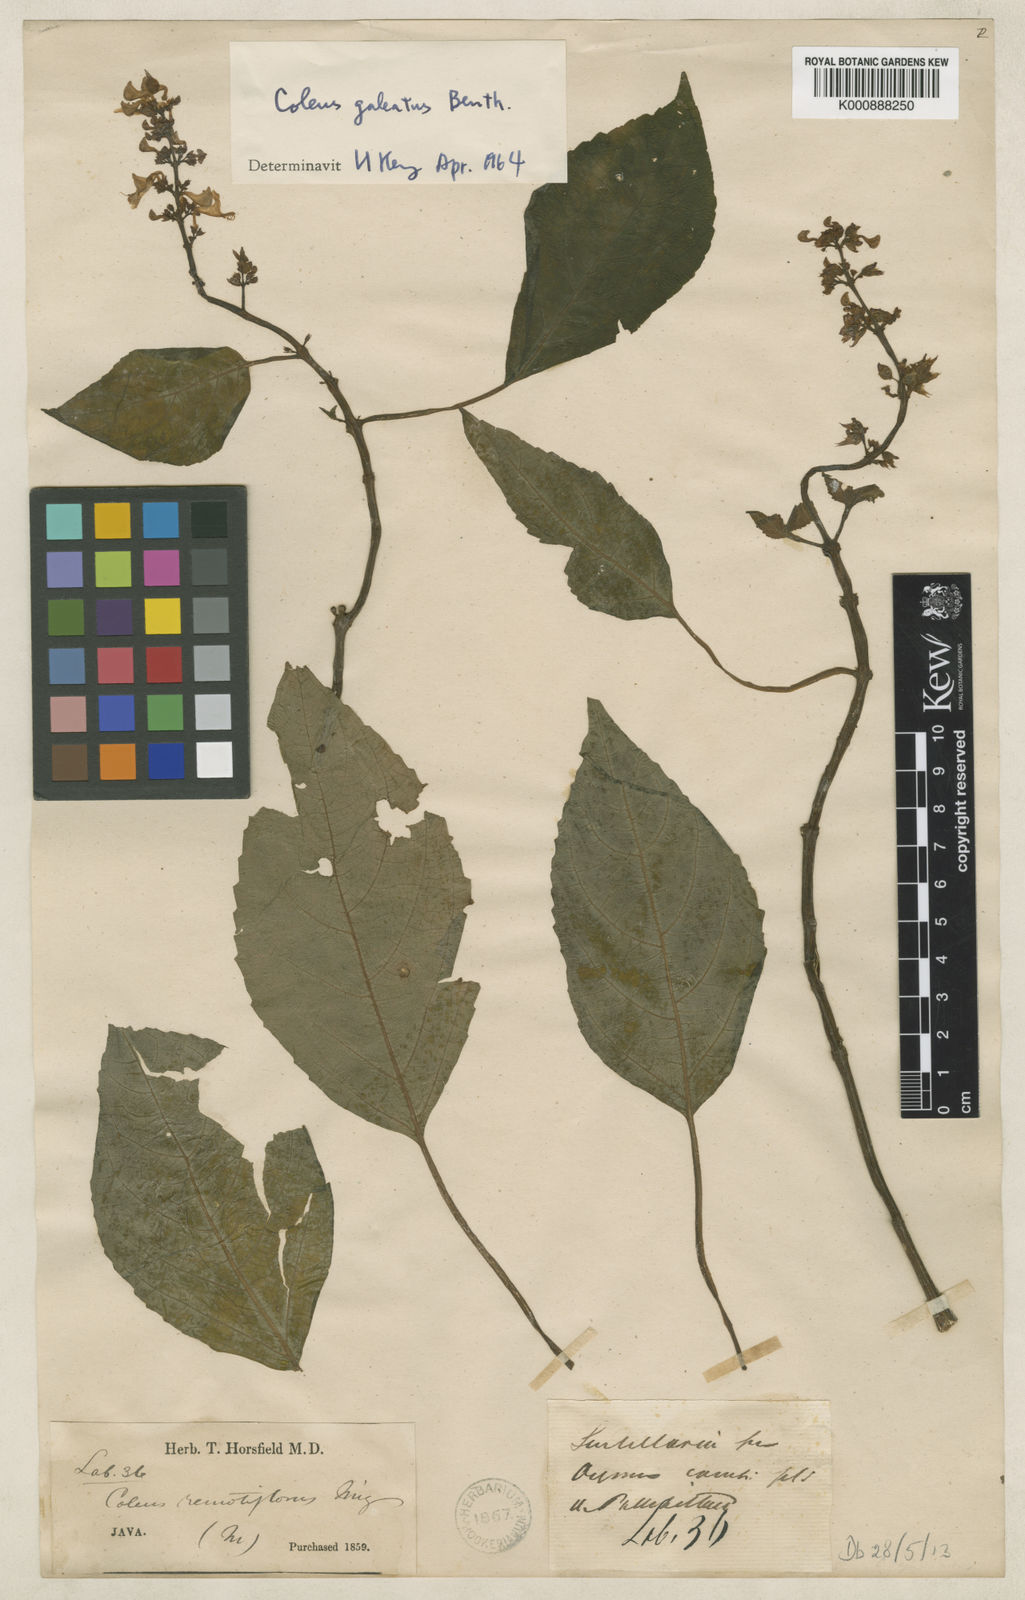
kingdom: Plantae
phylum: Tracheophyta
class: Magnoliopsida
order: Lamiales
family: Lamiaceae
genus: Coleus
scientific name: Coleus galeatus
